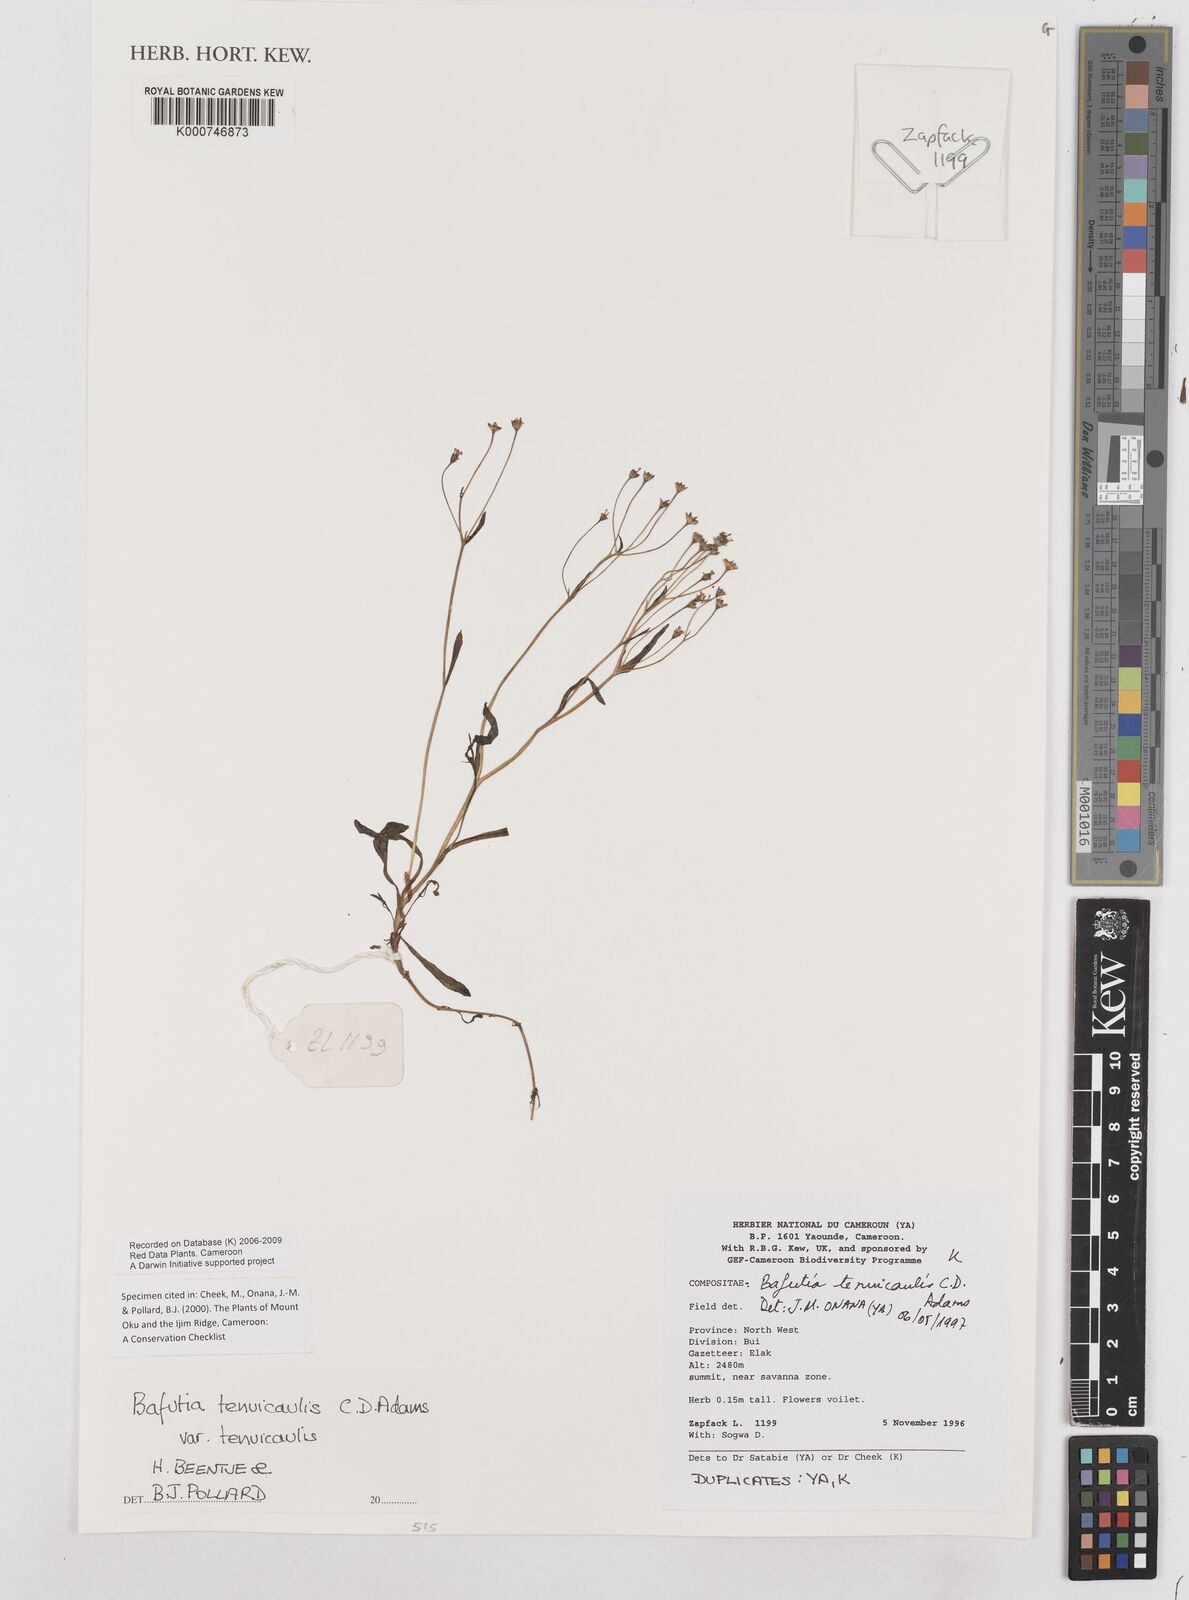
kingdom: Plantae
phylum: Tracheophyta
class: Magnoliopsida
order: Asterales
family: Asteraceae
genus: Bidens
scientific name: Bidens
